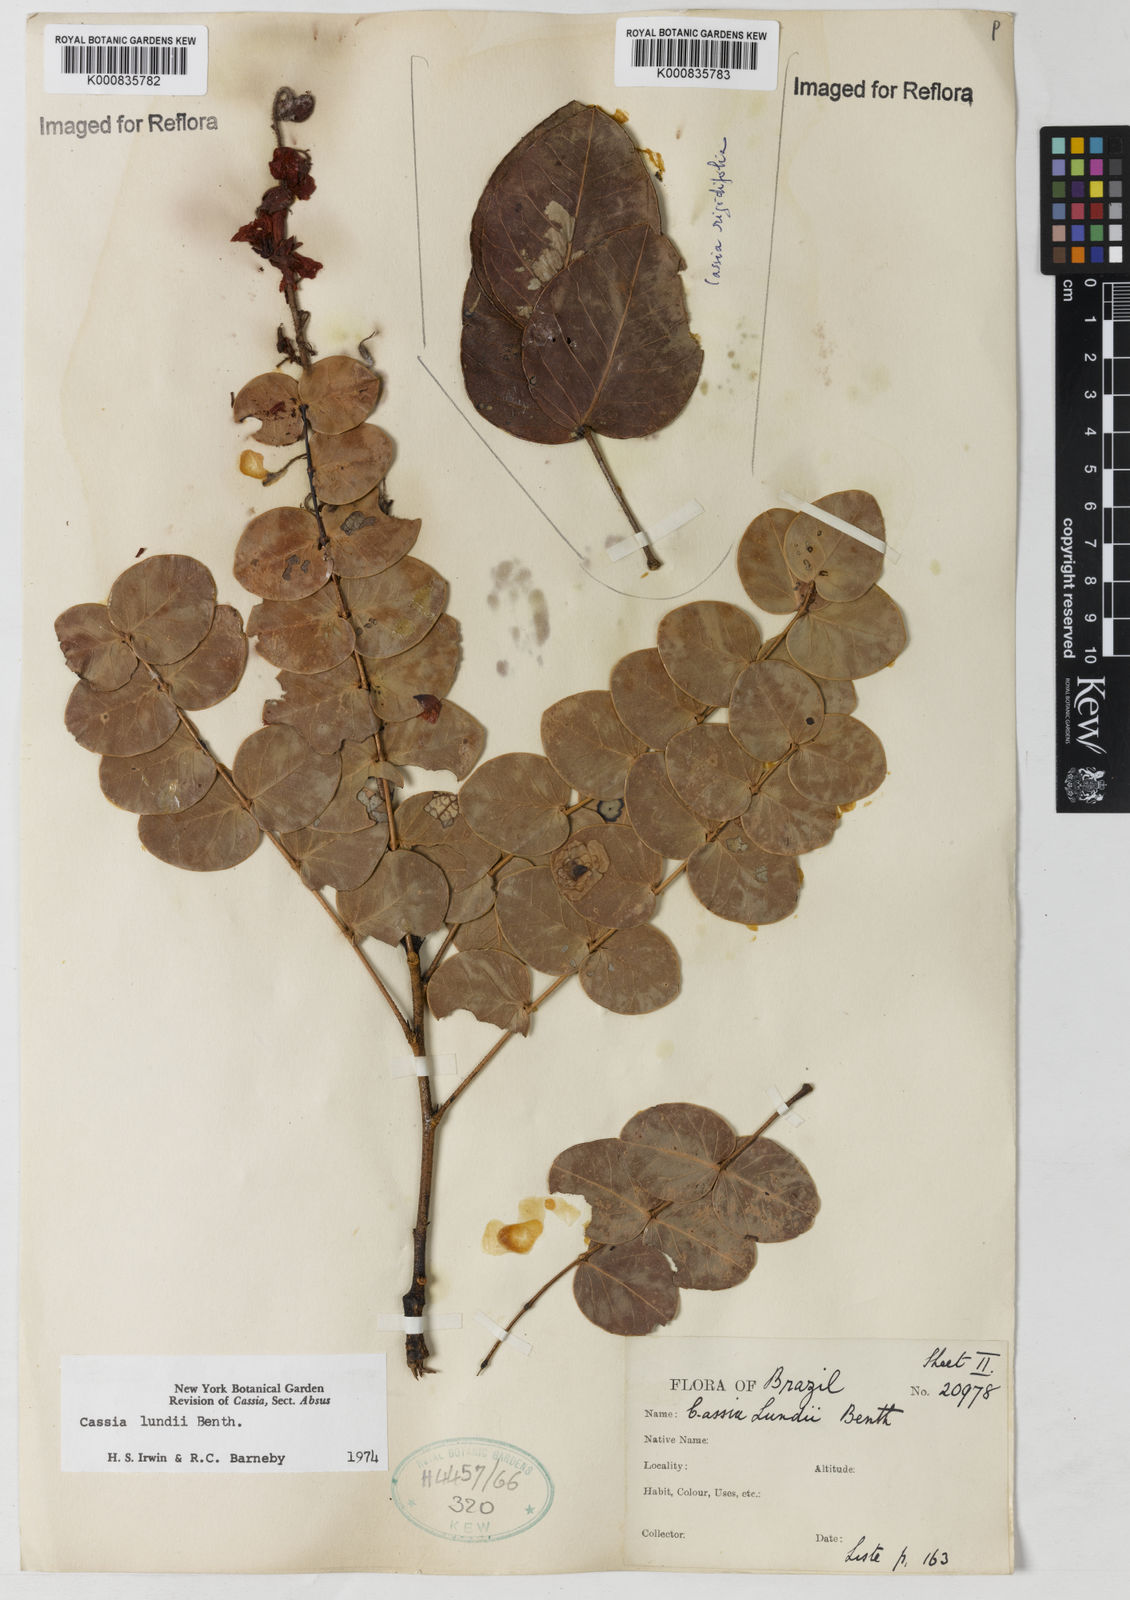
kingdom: Plantae
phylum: Tracheophyta
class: Magnoliopsida
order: Fabales
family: Fabaceae
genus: Chamaecrista
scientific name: Chamaecrista lundii
